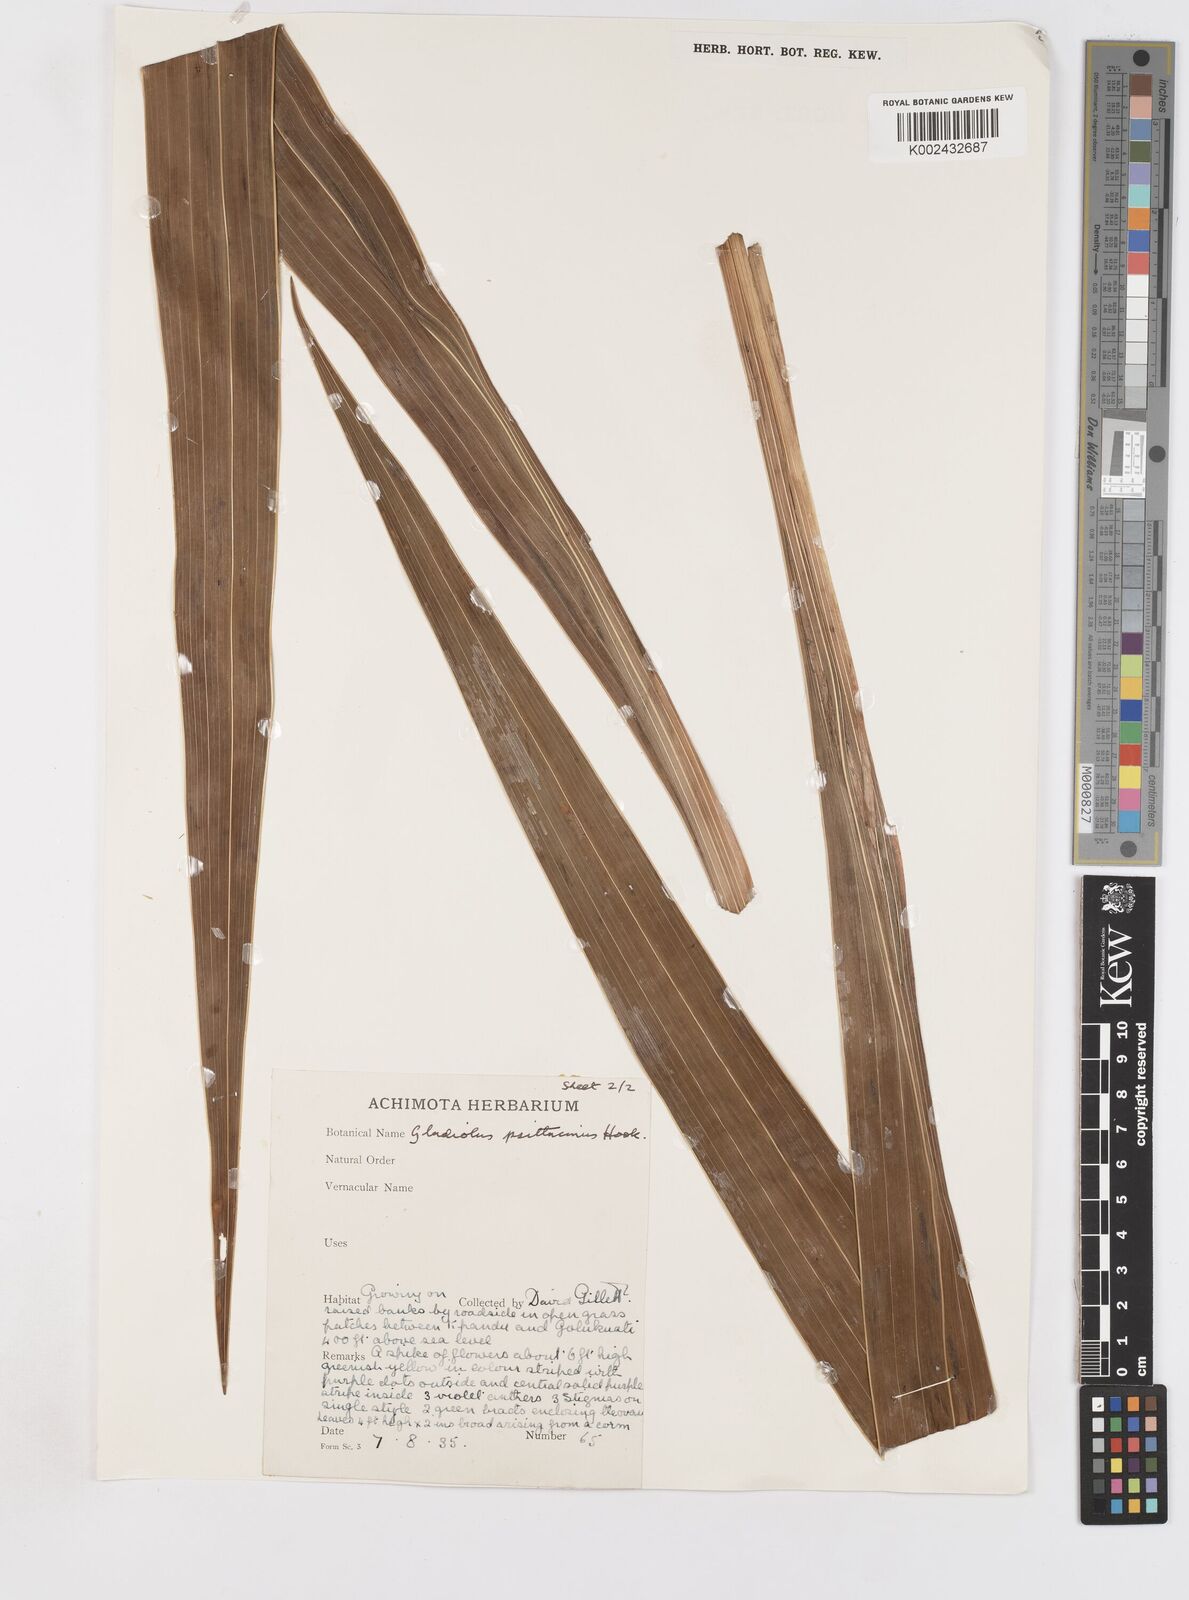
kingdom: Plantae
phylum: Tracheophyta
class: Liliopsida
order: Asparagales
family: Iridaceae
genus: Gladiolus
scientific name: Gladiolus dalenii
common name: Cornflag
